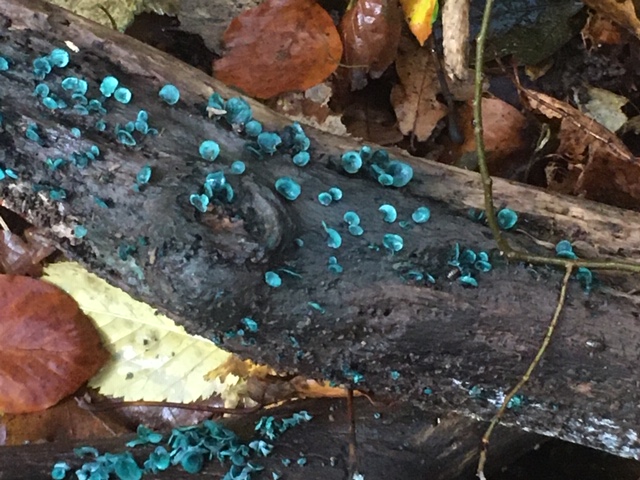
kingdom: Fungi
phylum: Ascomycota
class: Leotiomycetes
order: Helotiales
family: Chlorociboriaceae
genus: Chlorociboria
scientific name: Chlorociboria aeruginascens
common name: almindelig grønskive
